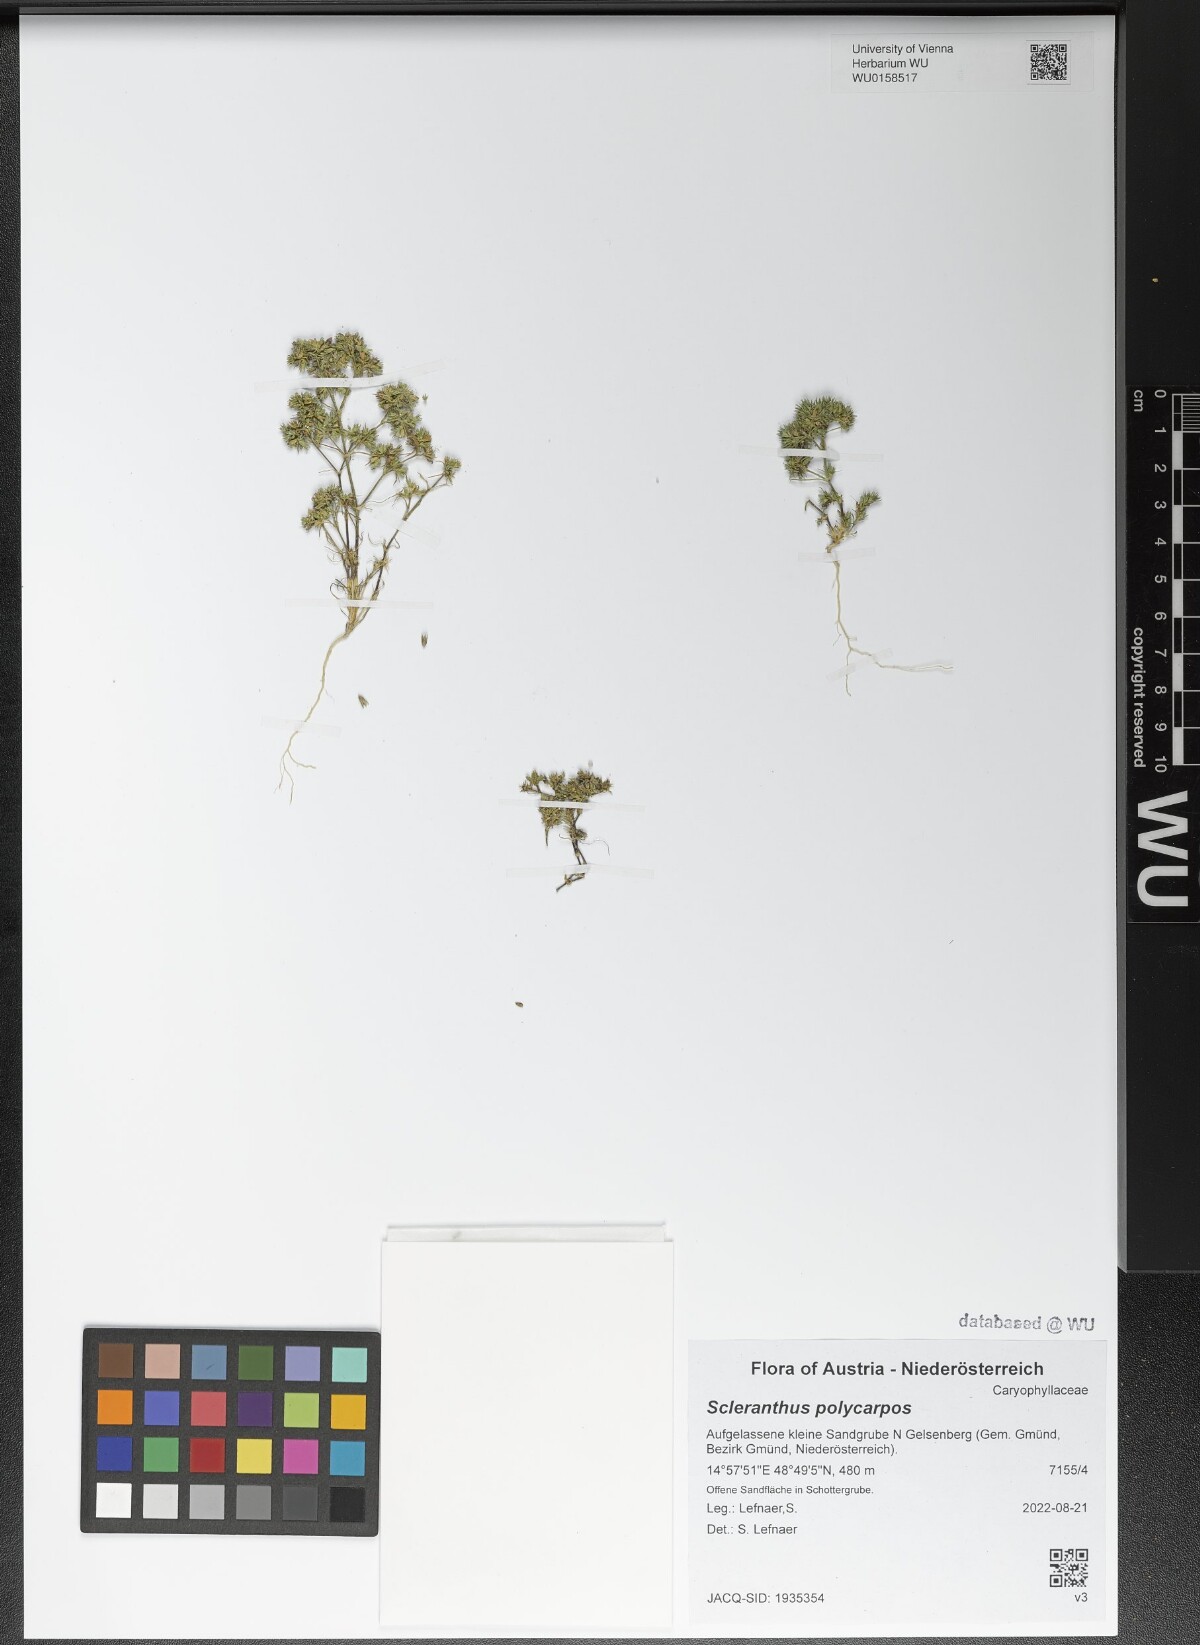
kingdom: Plantae
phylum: Tracheophyta
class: Magnoliopsida
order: Caryophyllales
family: Caryophyllaceae
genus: Scleranthus
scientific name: Scleranthus annuus
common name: Annual knawel
